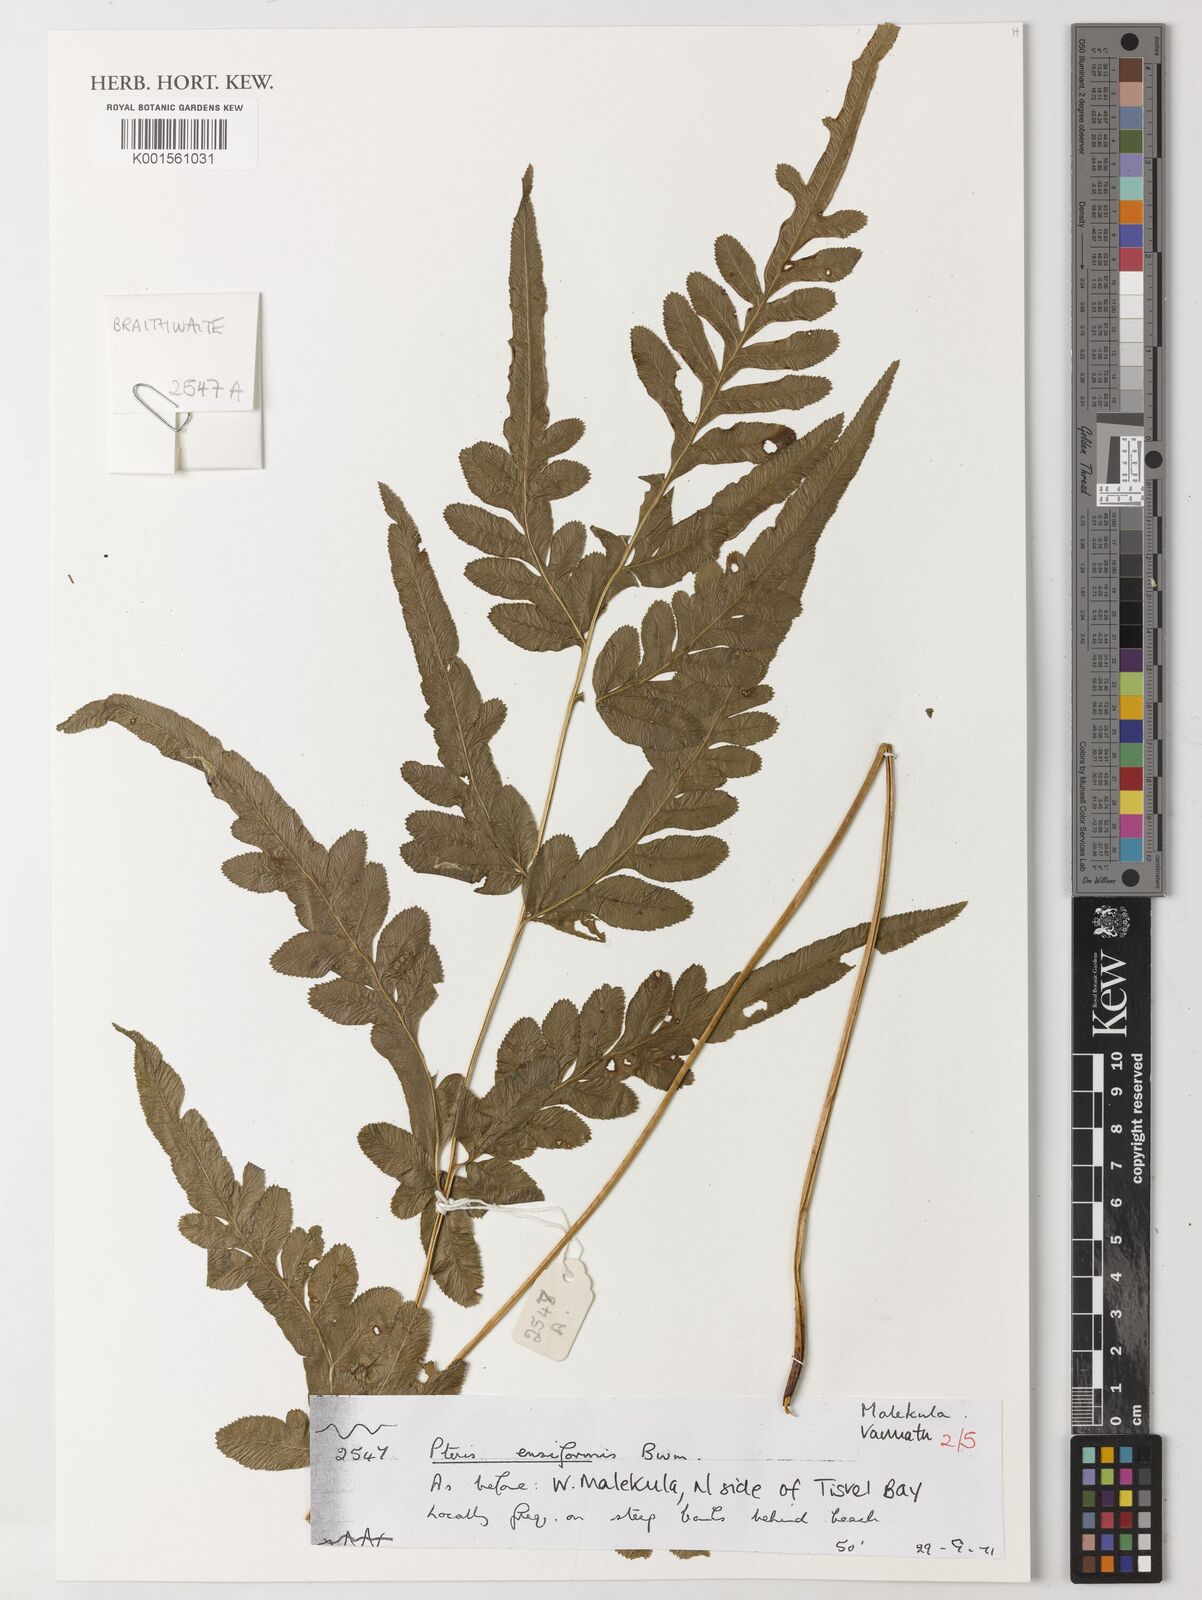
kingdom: Plantae
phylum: Tracheophyta
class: Polypodiopsida
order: Polypodiales
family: Pteridaceae
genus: Pteris
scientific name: Pteris ensiformis
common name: Sword brake
